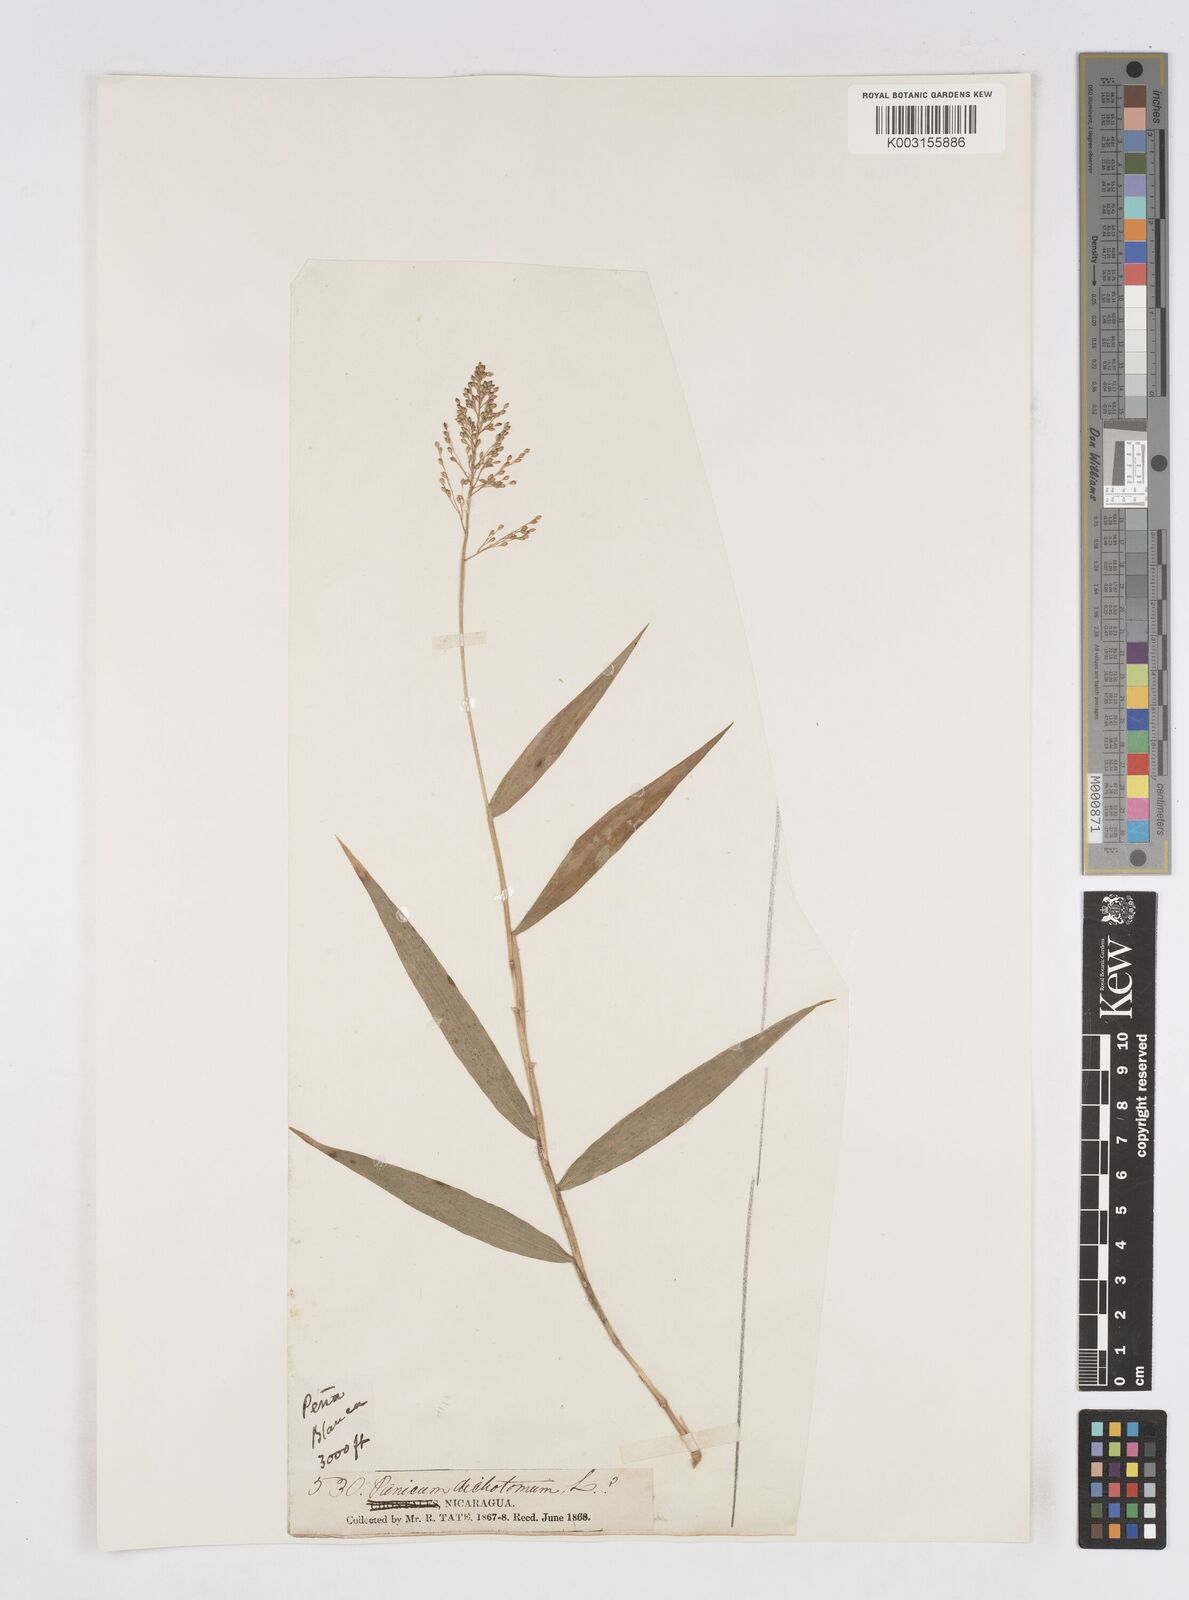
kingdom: Plantae
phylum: Tracheophyta
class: Liliopsida
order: Poales
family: Poaceae
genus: Isachne
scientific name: Isachne pubescens
